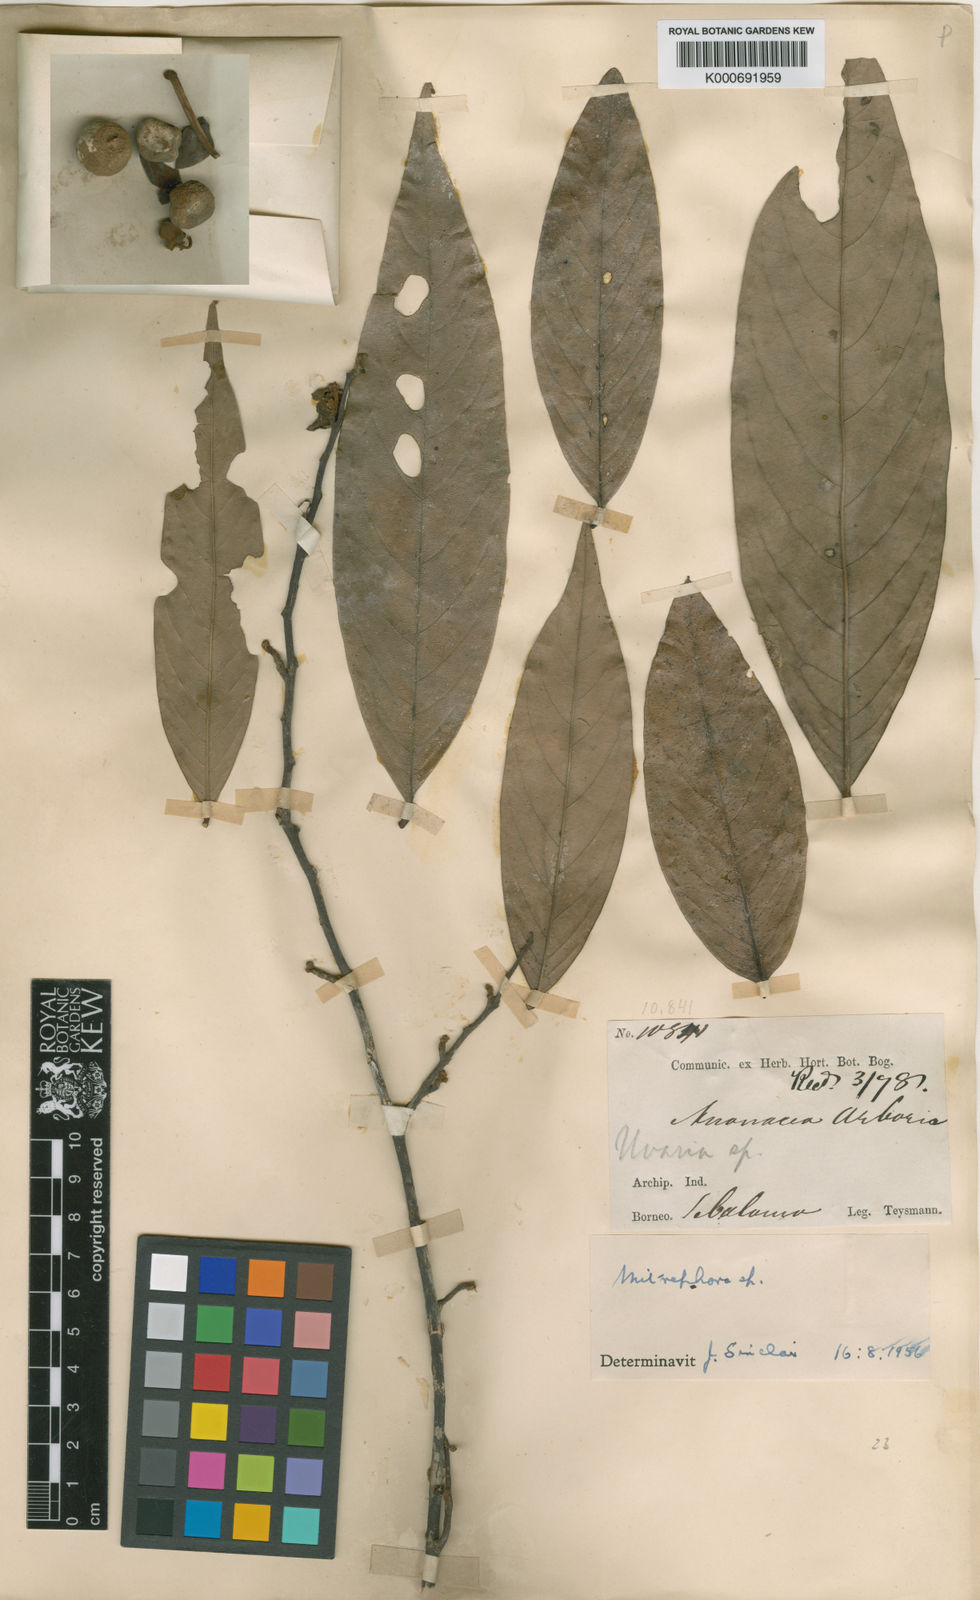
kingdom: Plantae
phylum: Tracheophyta
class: Magnoliopsida
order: Magnoliales
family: Annonaceae
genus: Mitrephora
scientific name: Mitrephora glabra
